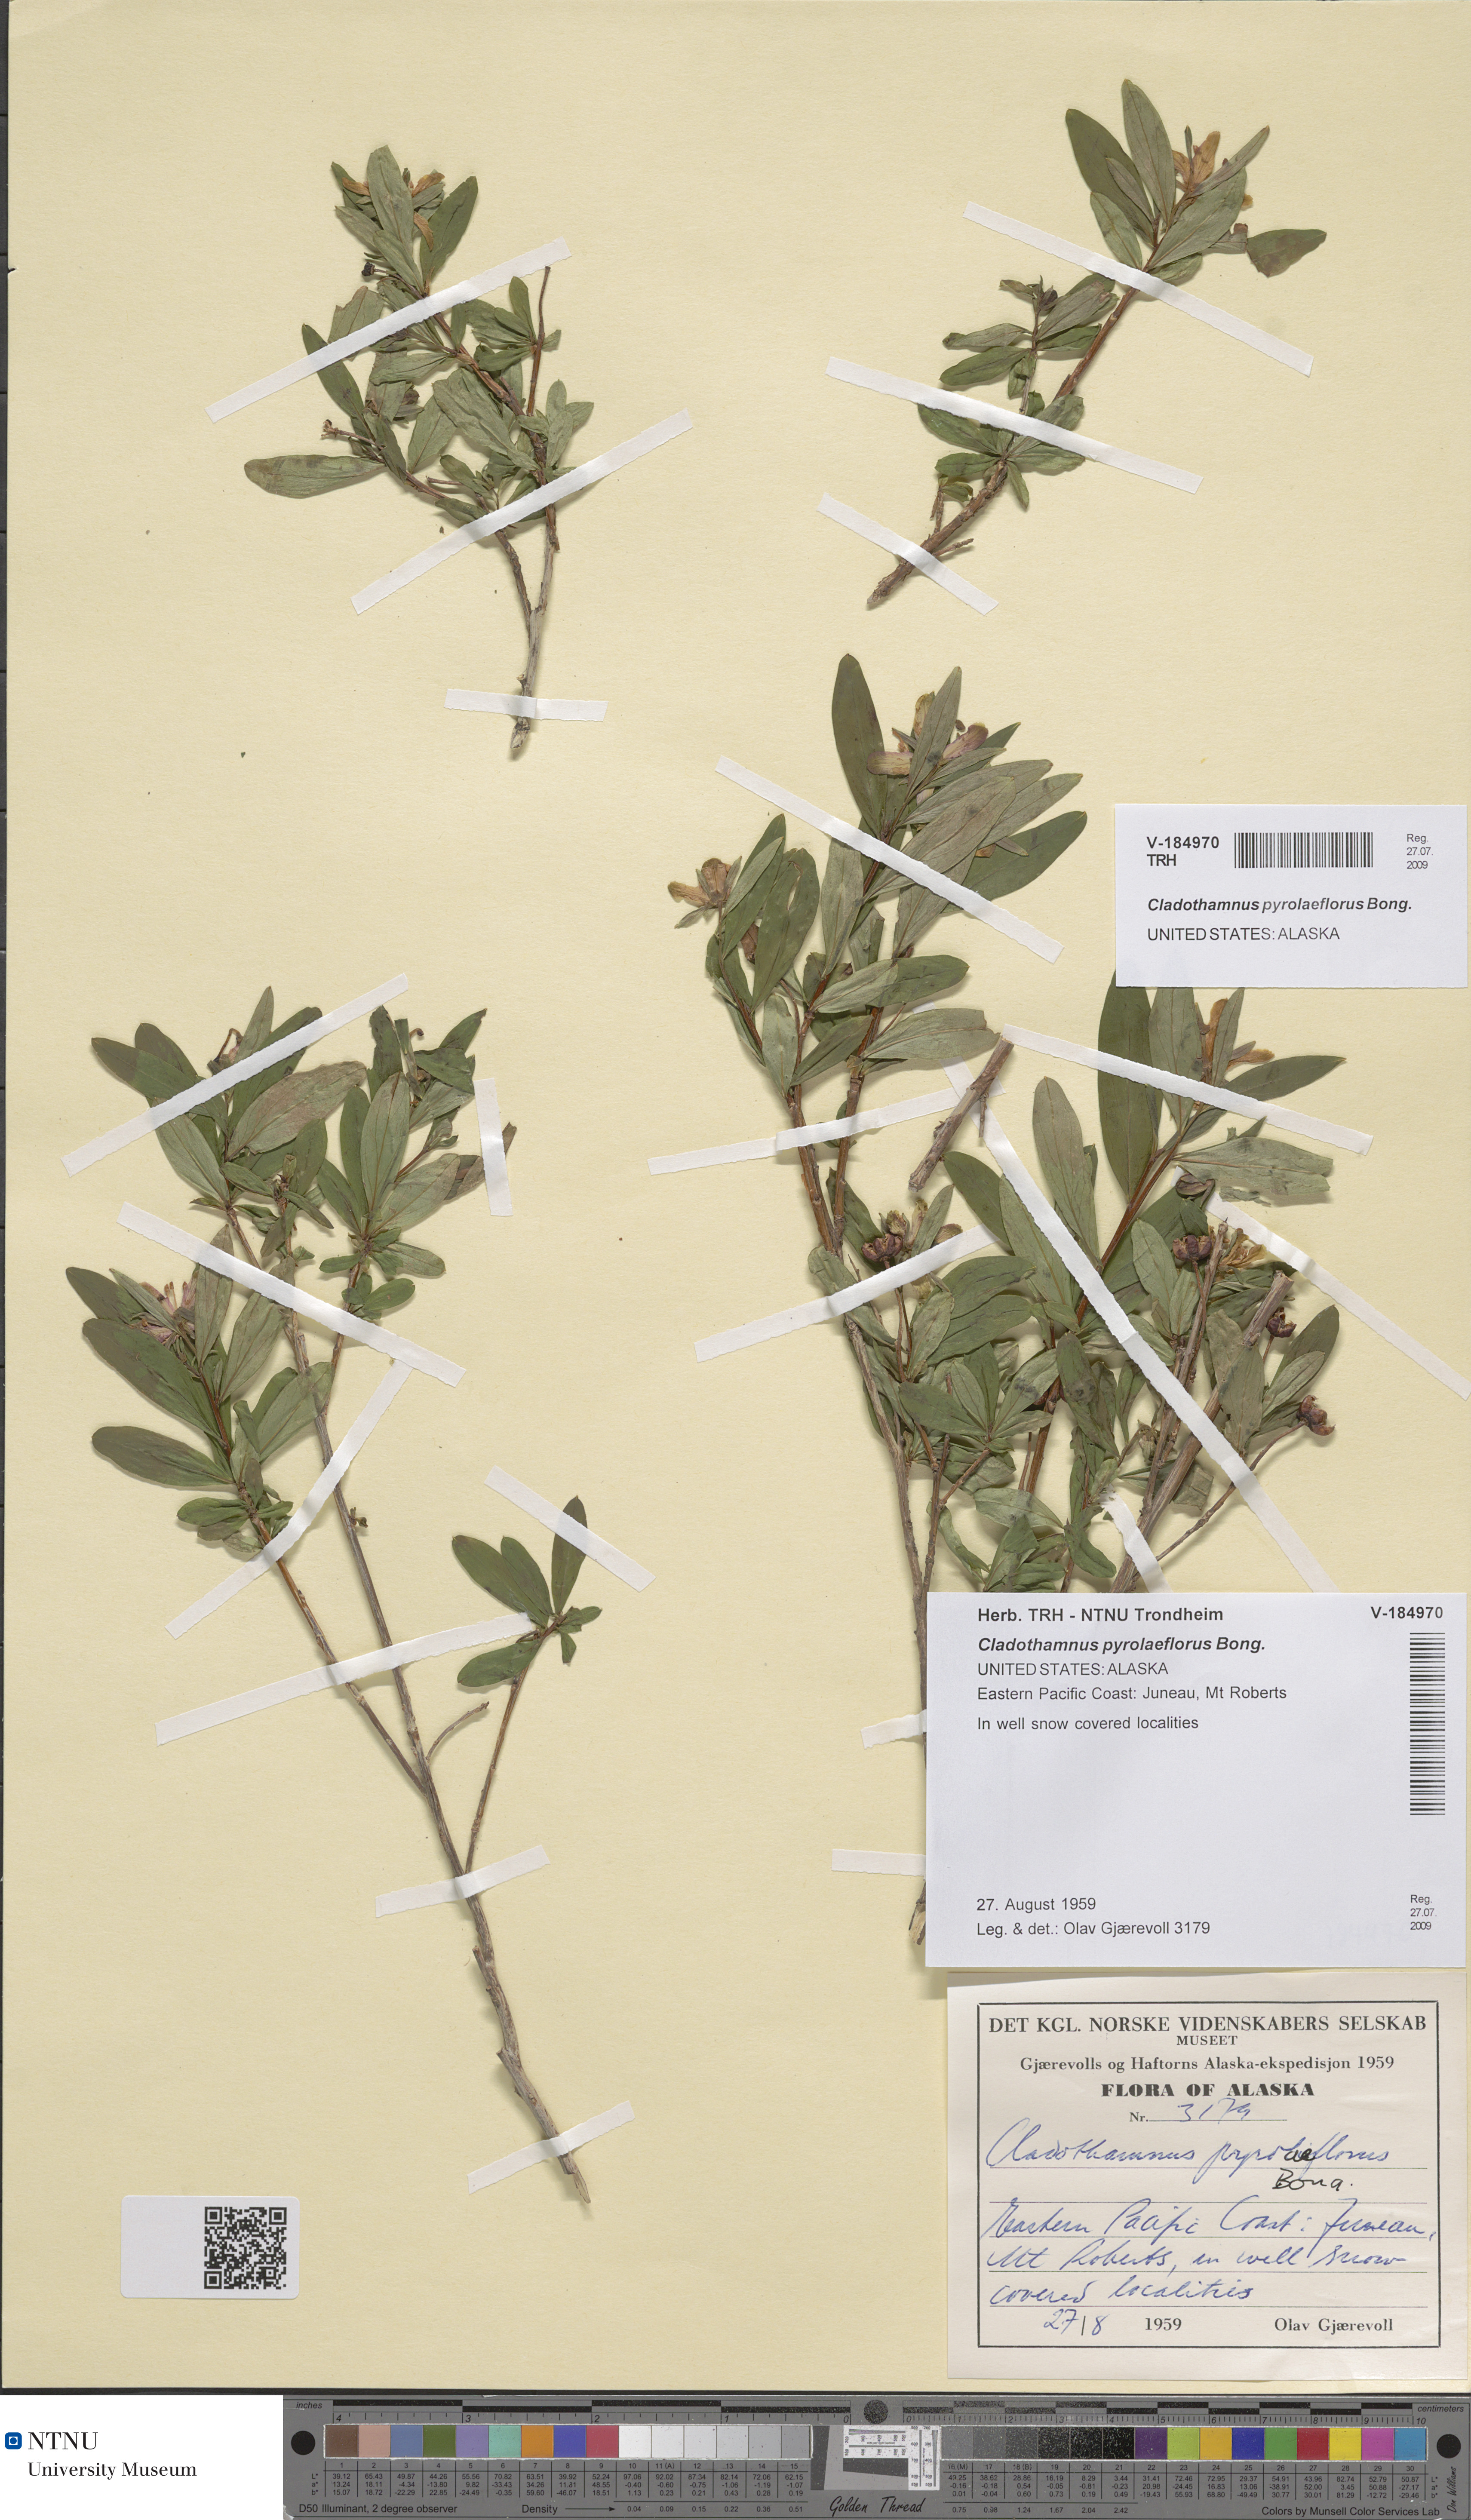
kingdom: Plantae
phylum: Tracheophyta
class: Magnoliopsida
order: Ericales
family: Ericaceae
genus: Elliottia
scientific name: Elliottia Cladothamnus pyrolaeflorus
